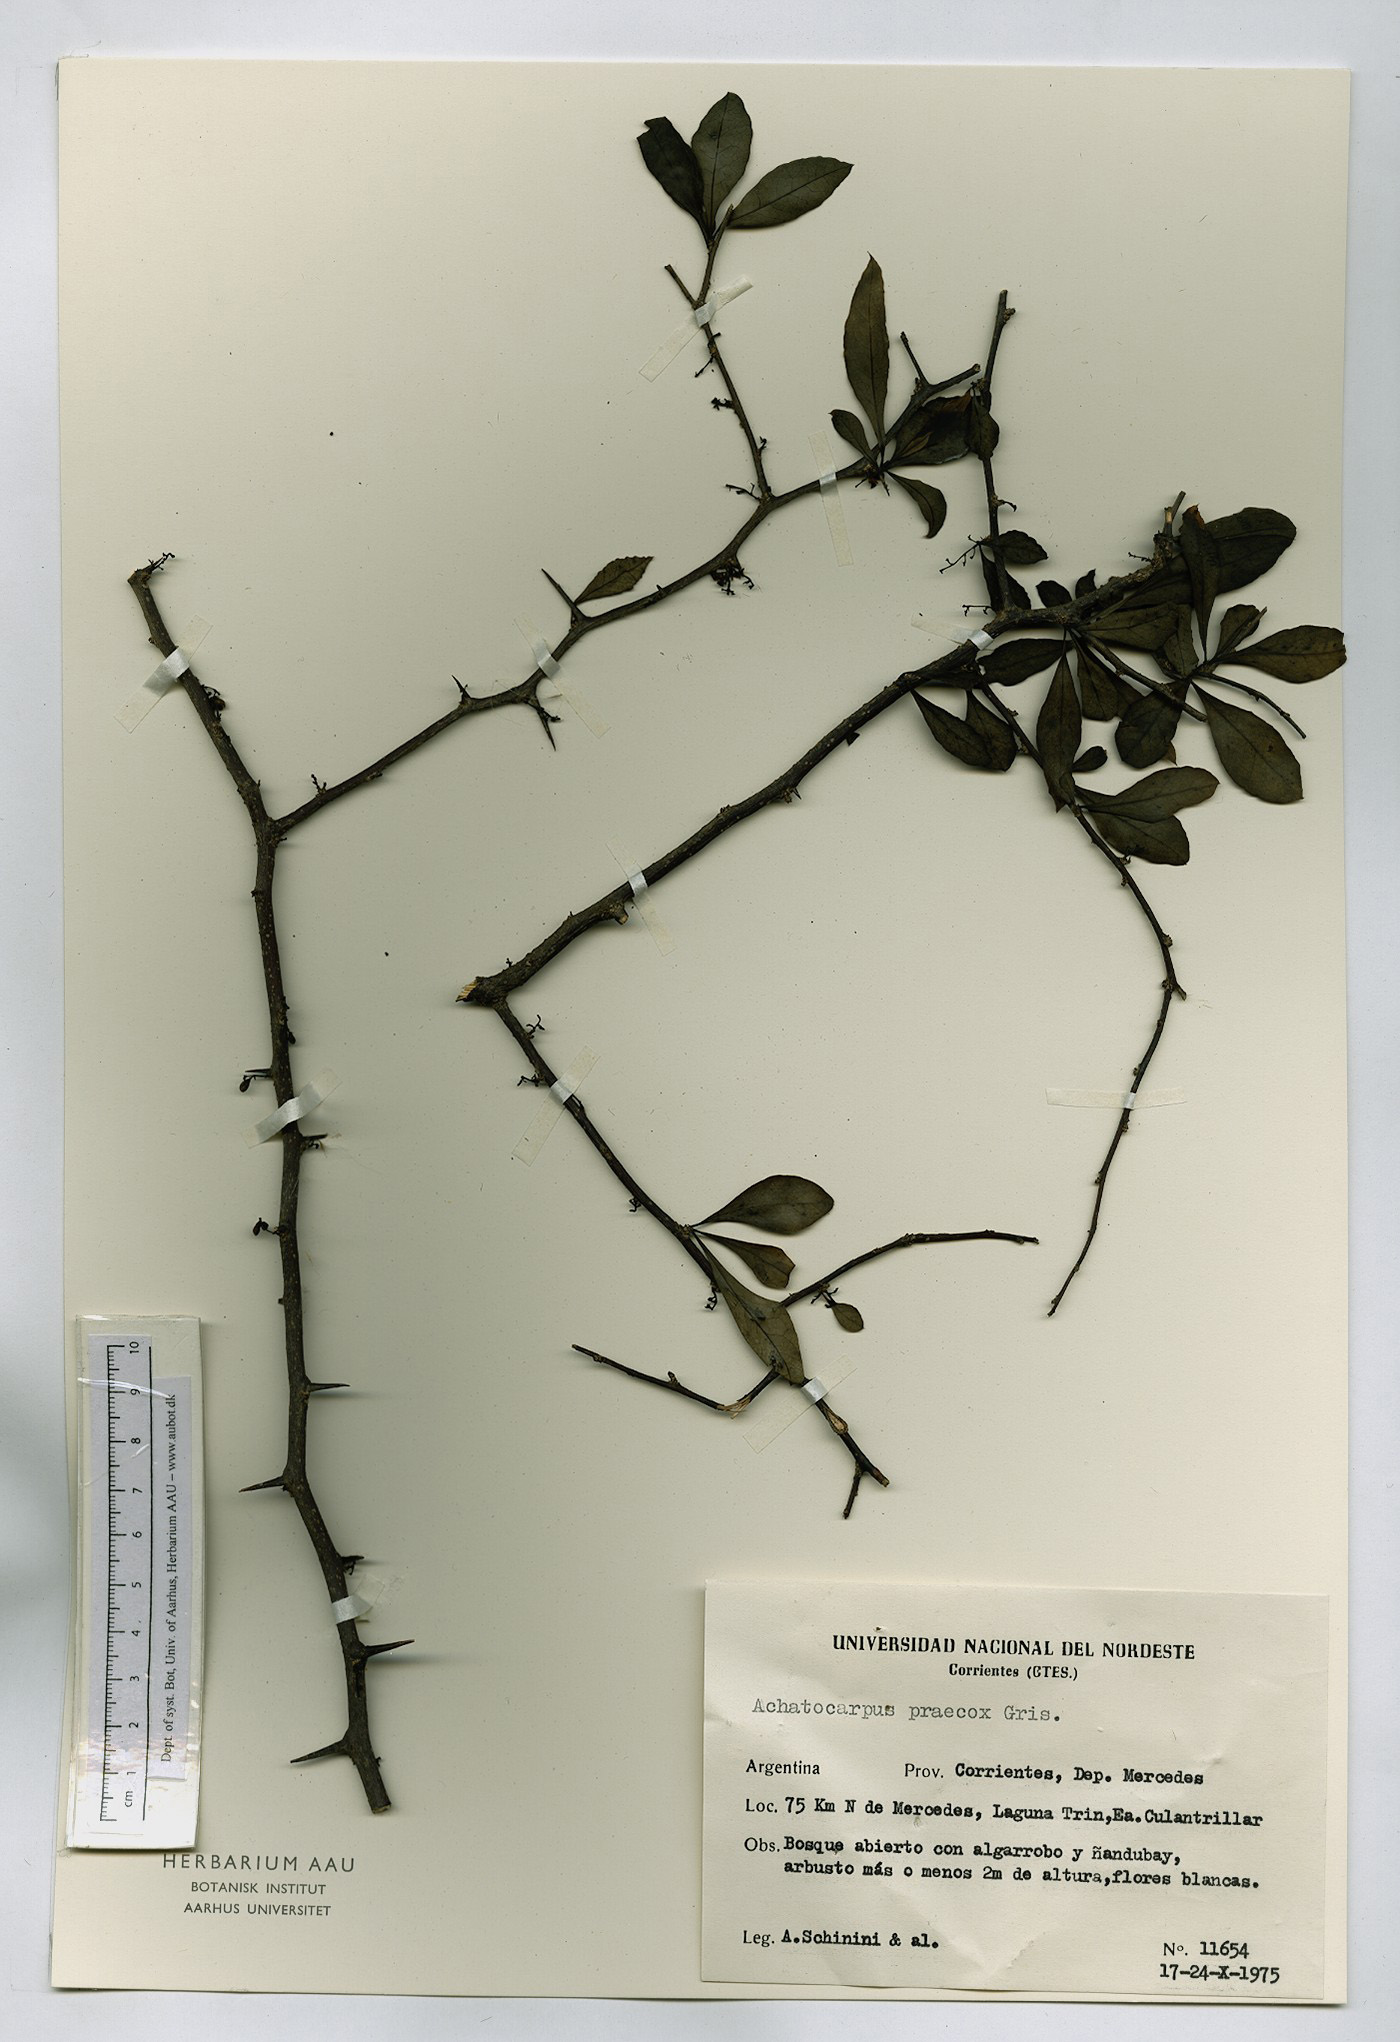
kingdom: Plantae
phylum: Tracheophyta
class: Magnoliopsida
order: Caryophyllales
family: Achatocarpaceae
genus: Achatocarpus
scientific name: Achatocarpus praecox
